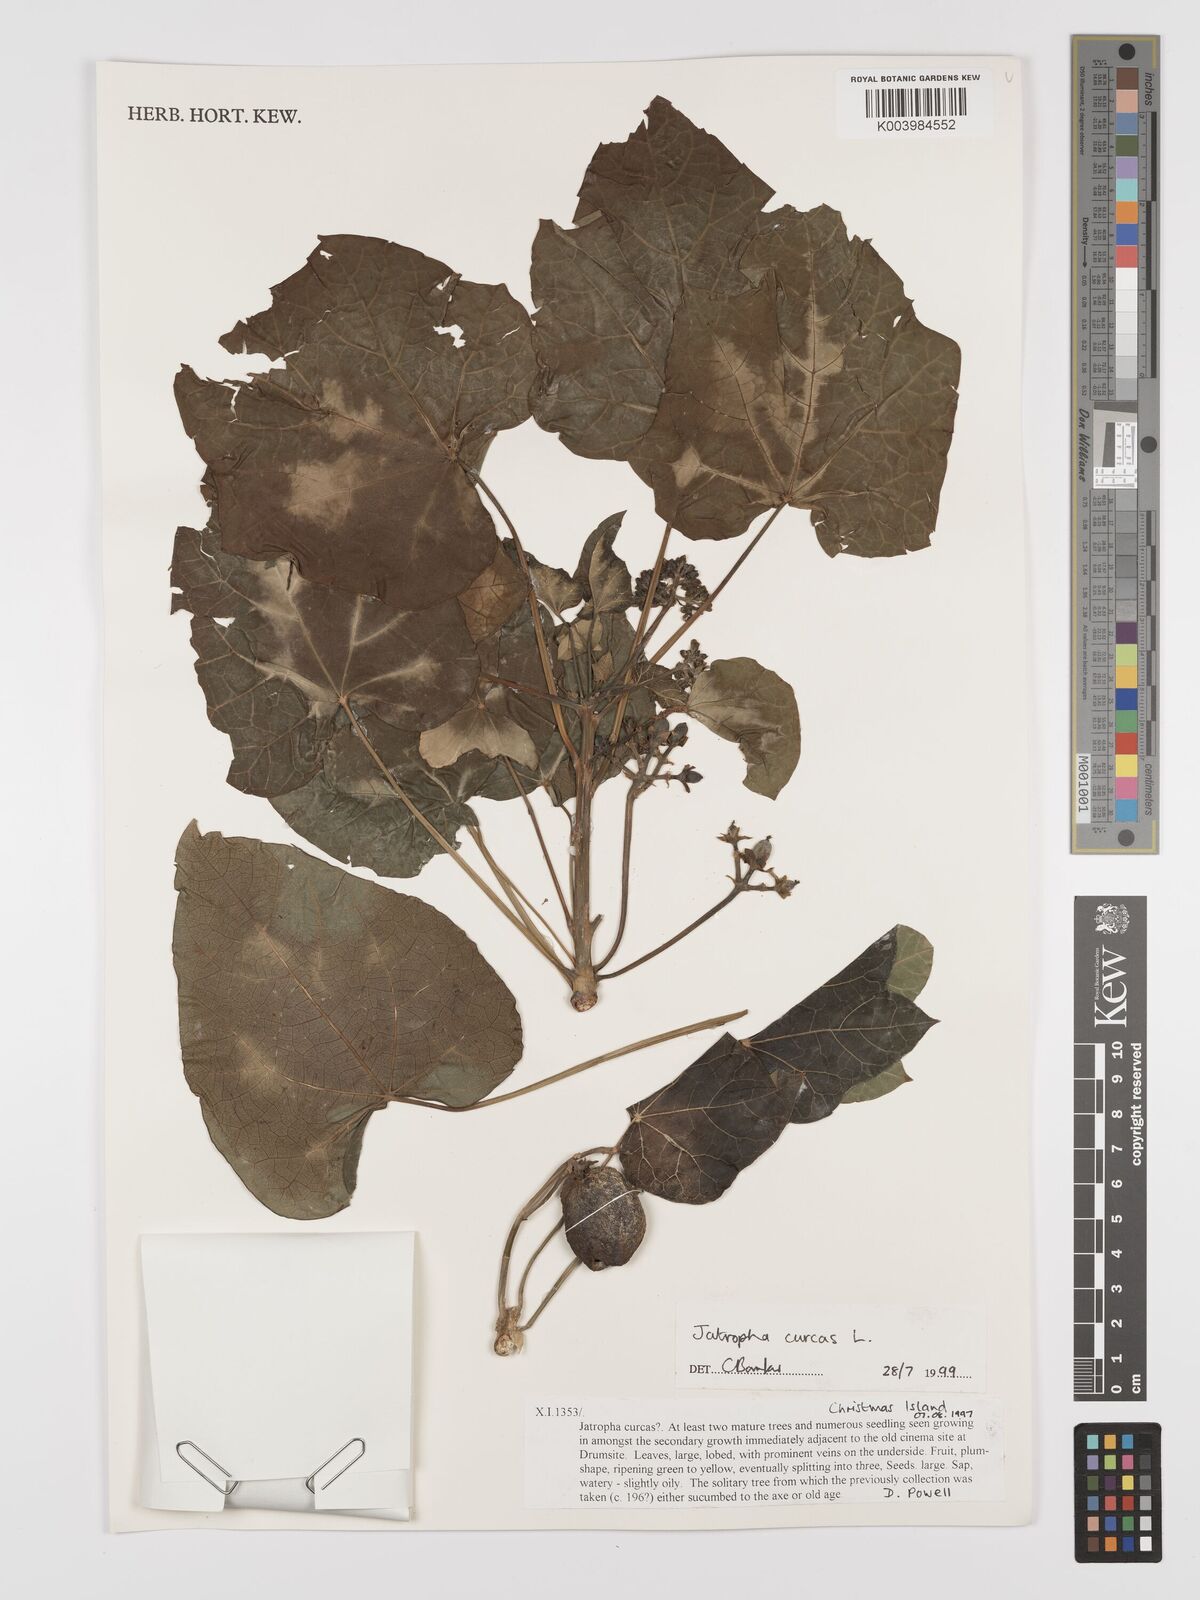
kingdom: Plantae
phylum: Tracheophyta
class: Magnoliopsida
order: Malpighiales
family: Euphorbiaceae
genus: Jatropha
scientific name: Jatropha curcas
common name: Barbados nut
